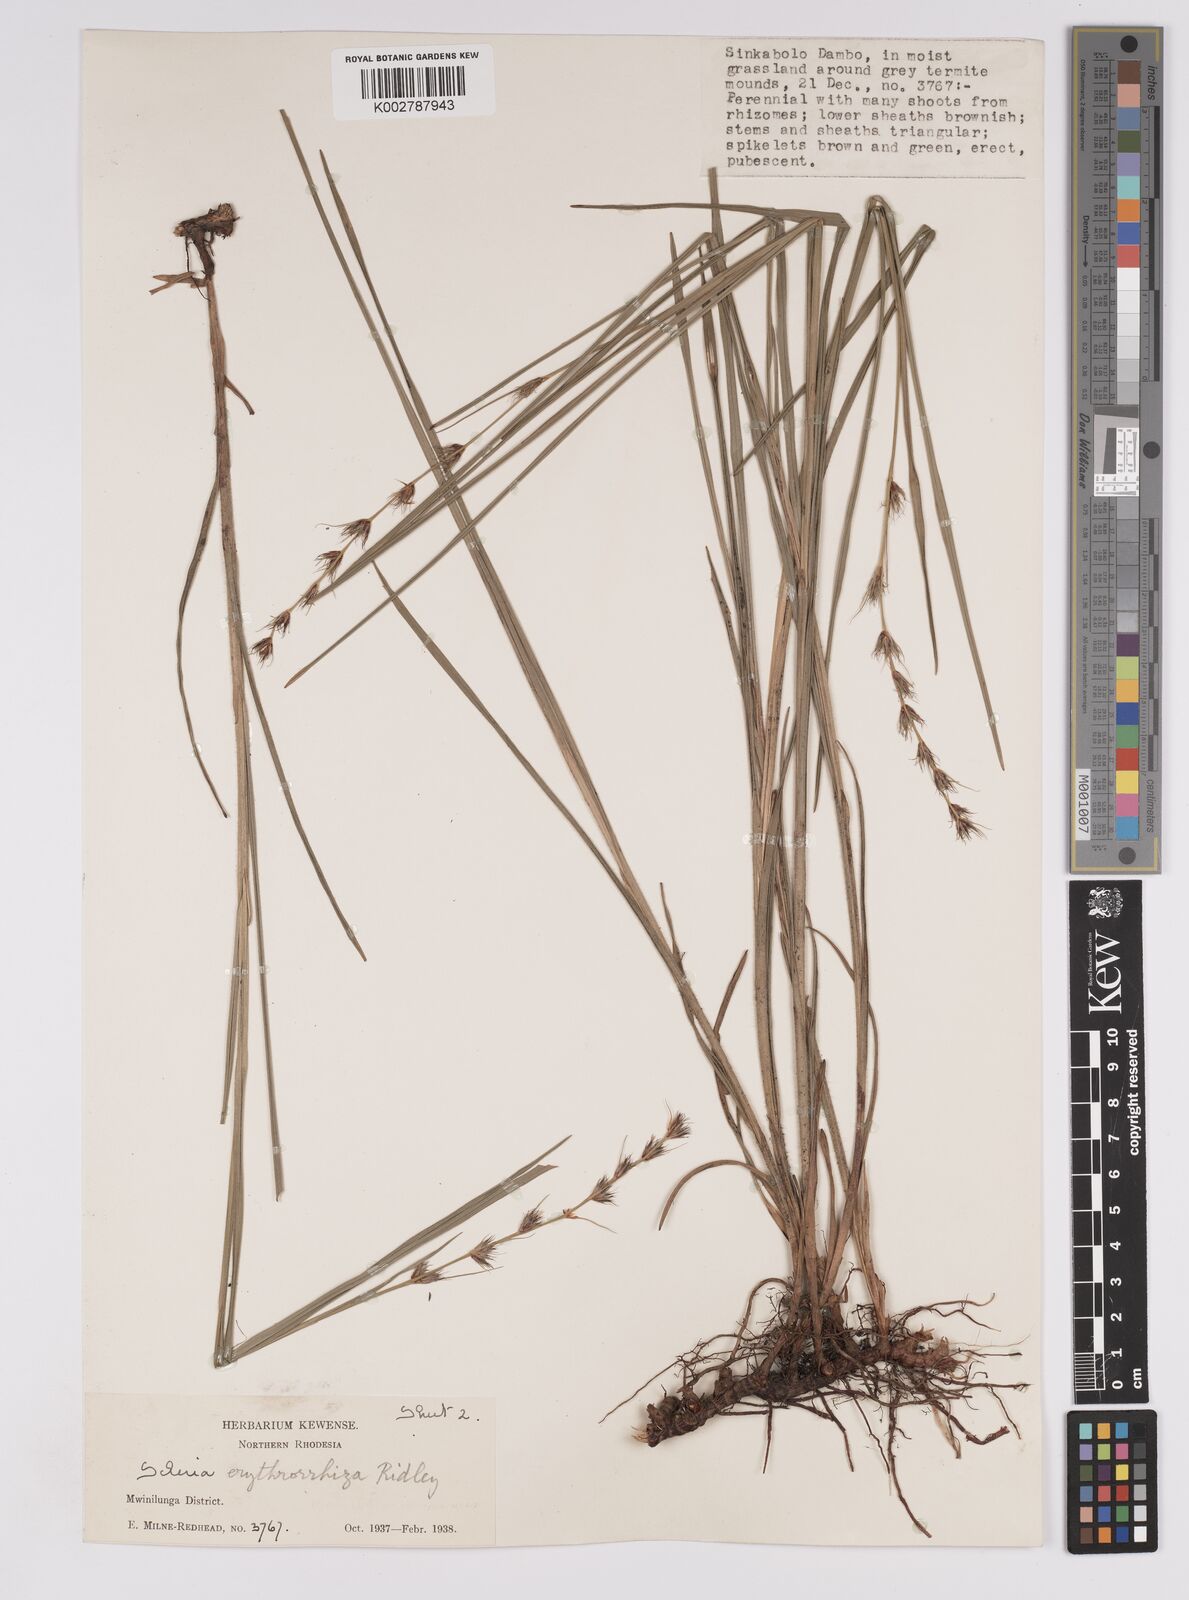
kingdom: Plantae
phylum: Tracheophyta
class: Liliopsida
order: Poales
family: Cyperaceae
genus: Scleria
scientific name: Scleria erythrorrhiza
